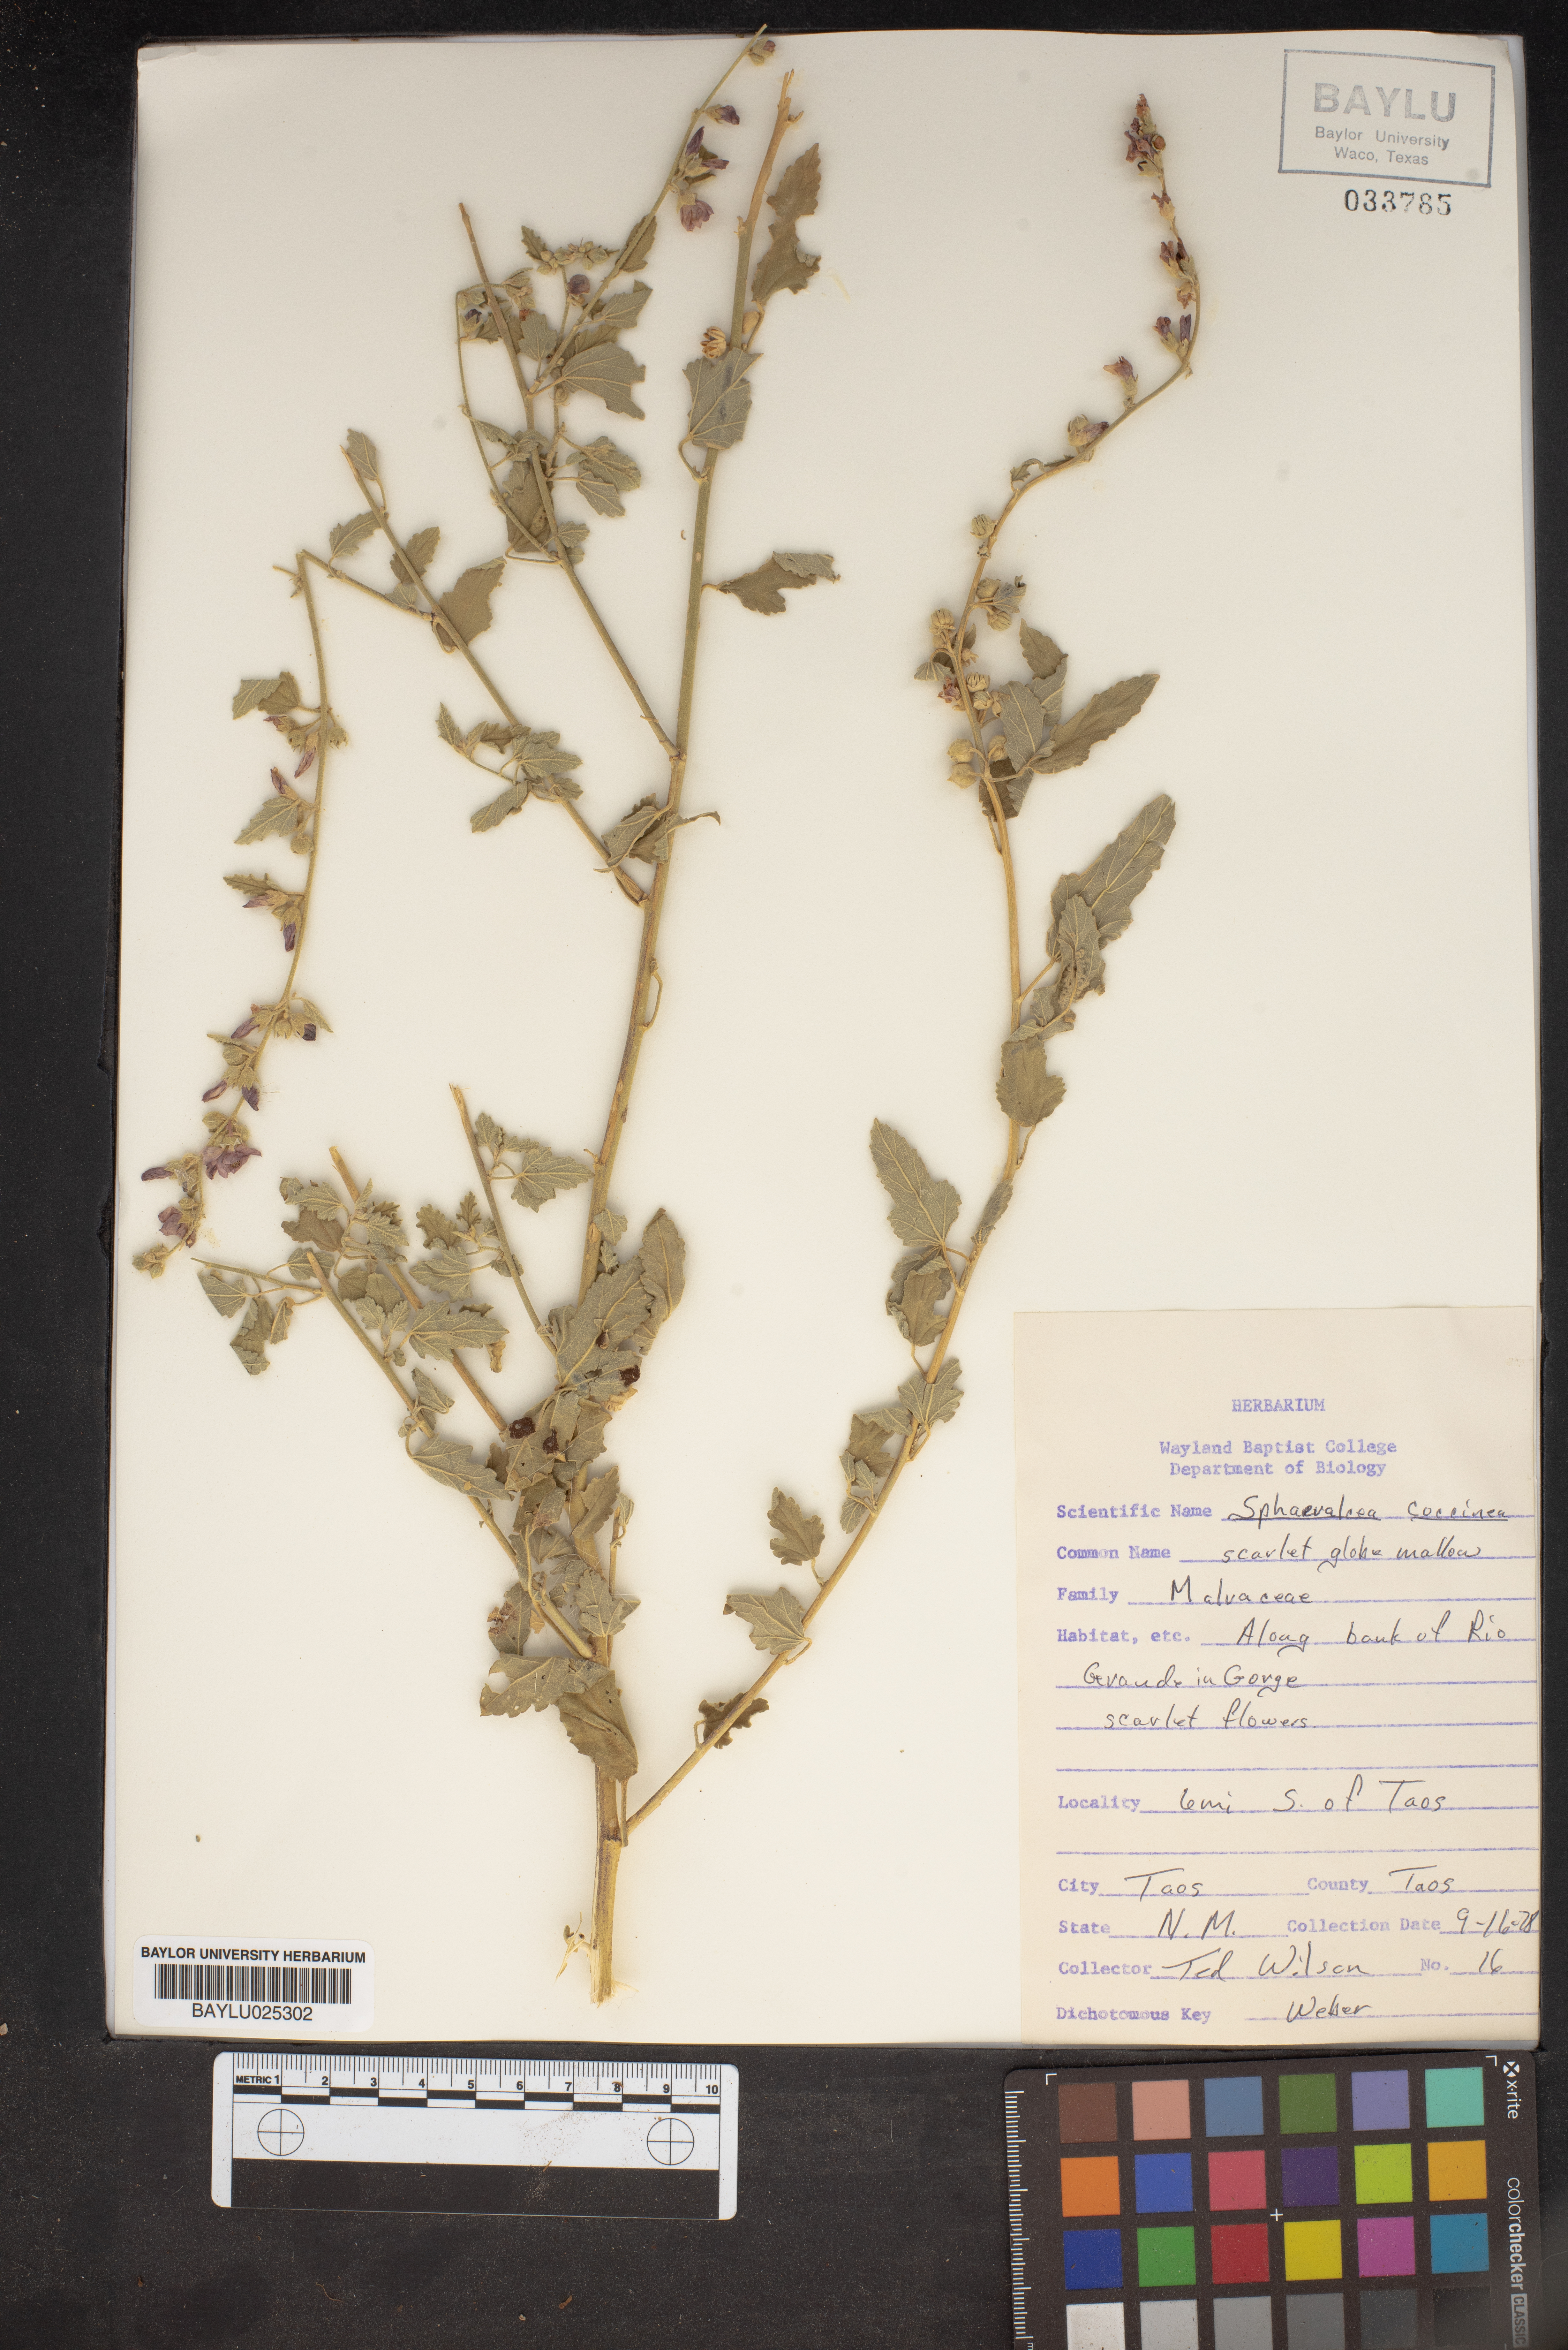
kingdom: Plantae
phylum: Tracheophyta
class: Magnoliopsida
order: Malvales
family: Malvaceae
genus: Sphaeralcea
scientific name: Sphaeralcea coccinea
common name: Moss-rose
